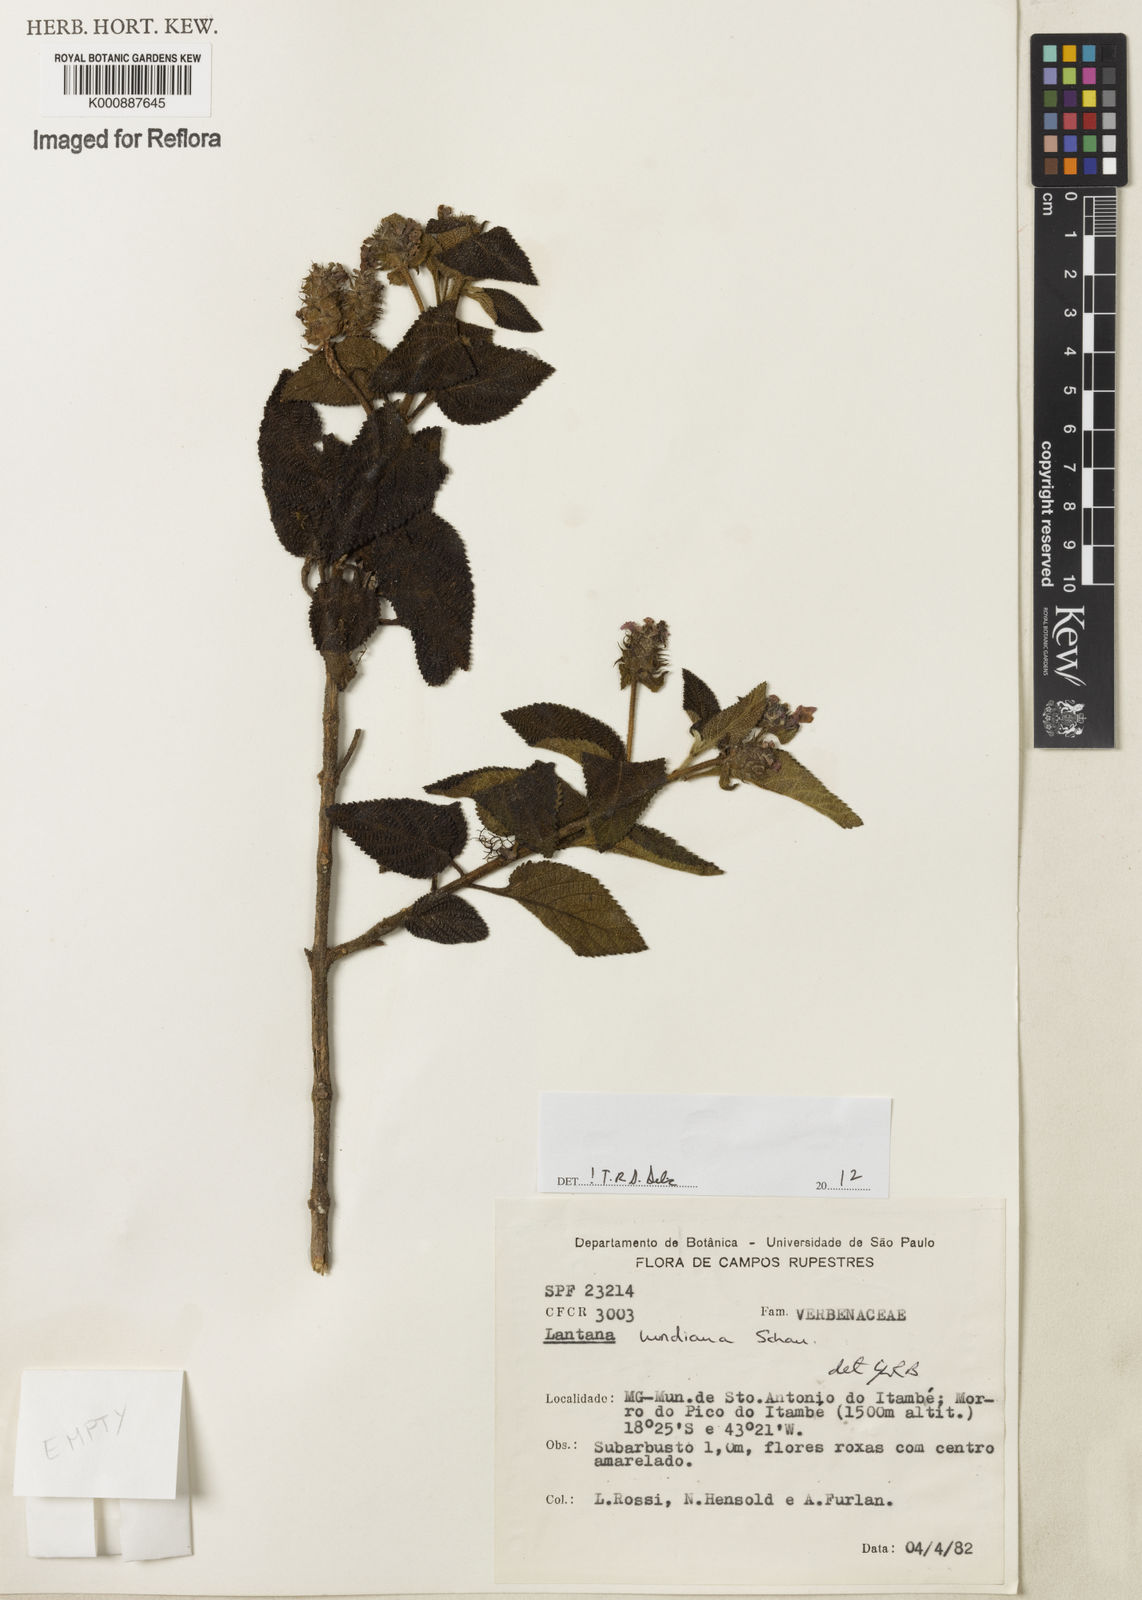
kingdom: Plantae
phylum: Tracheophyta
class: Magnoliopsida
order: Lamiales
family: Verbenaceae
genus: Lantana
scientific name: Lantana lundiana
